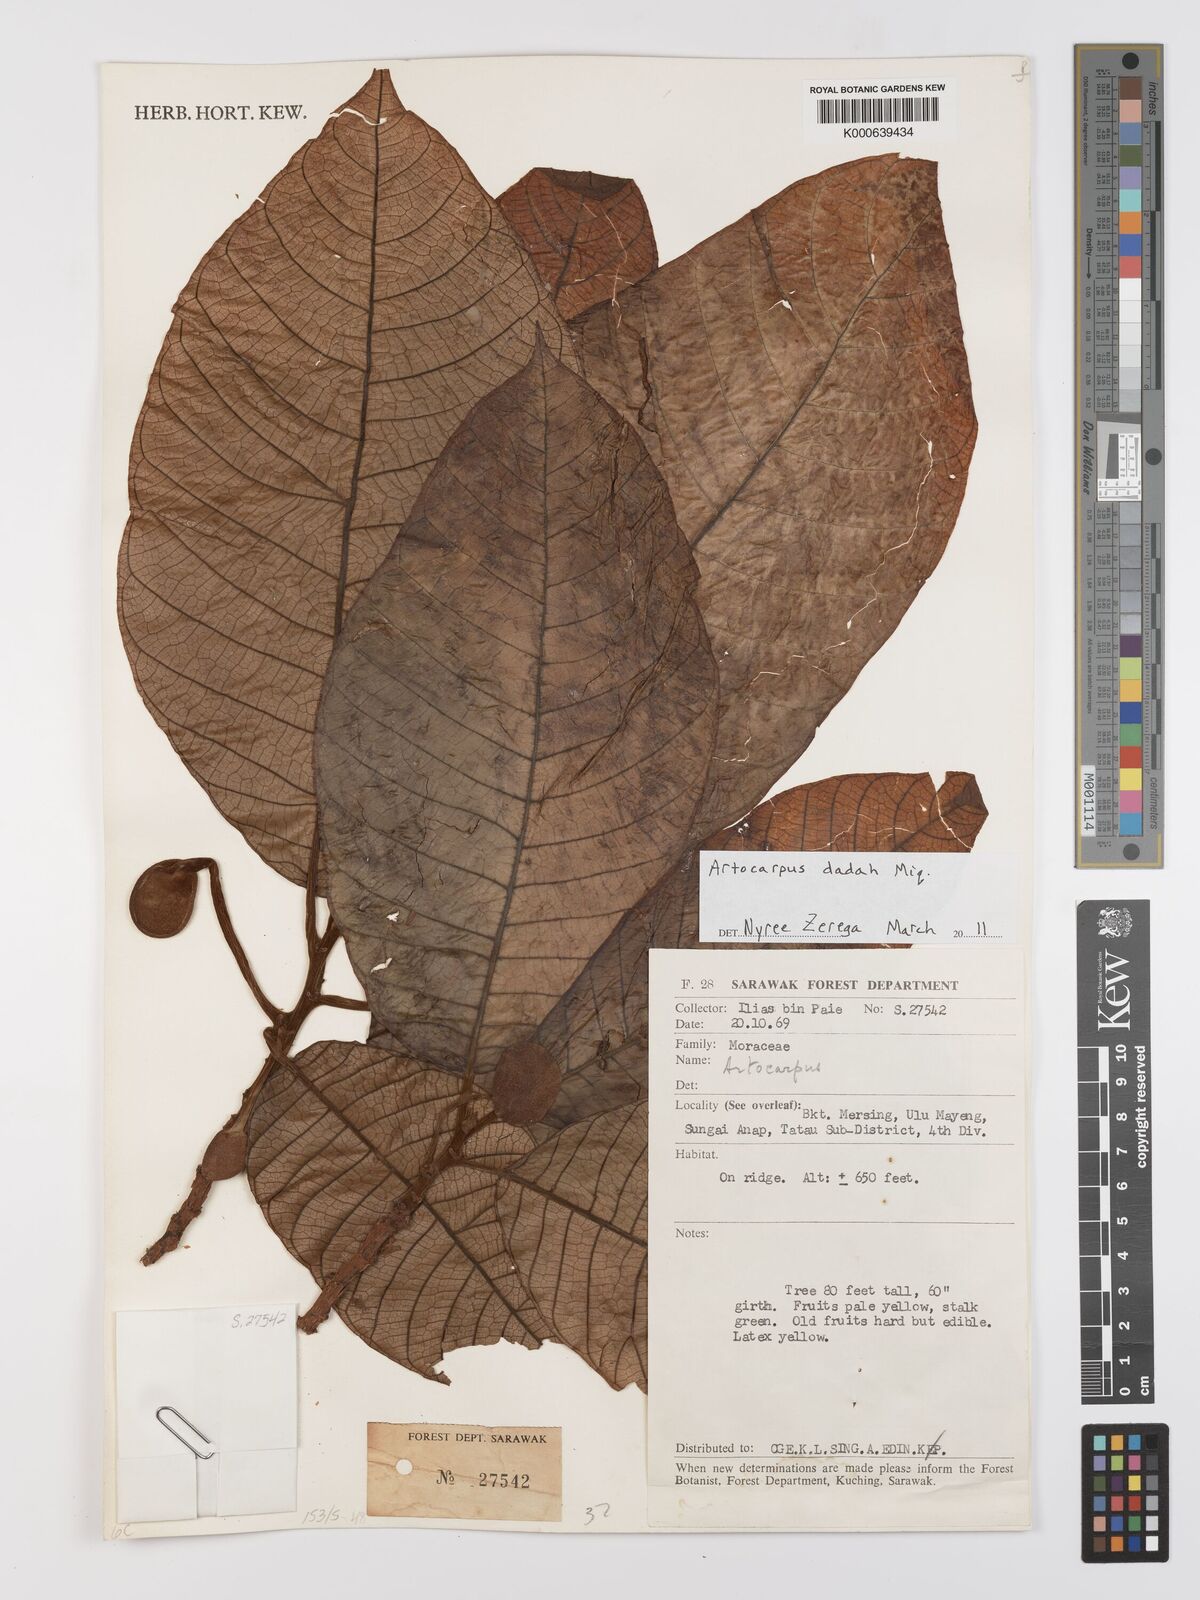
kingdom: Plantae
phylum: Tracheophyta
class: Magnoliopsida
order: Rosales
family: Moraceae
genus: Artocarpus
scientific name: Artocarpus lacucha
